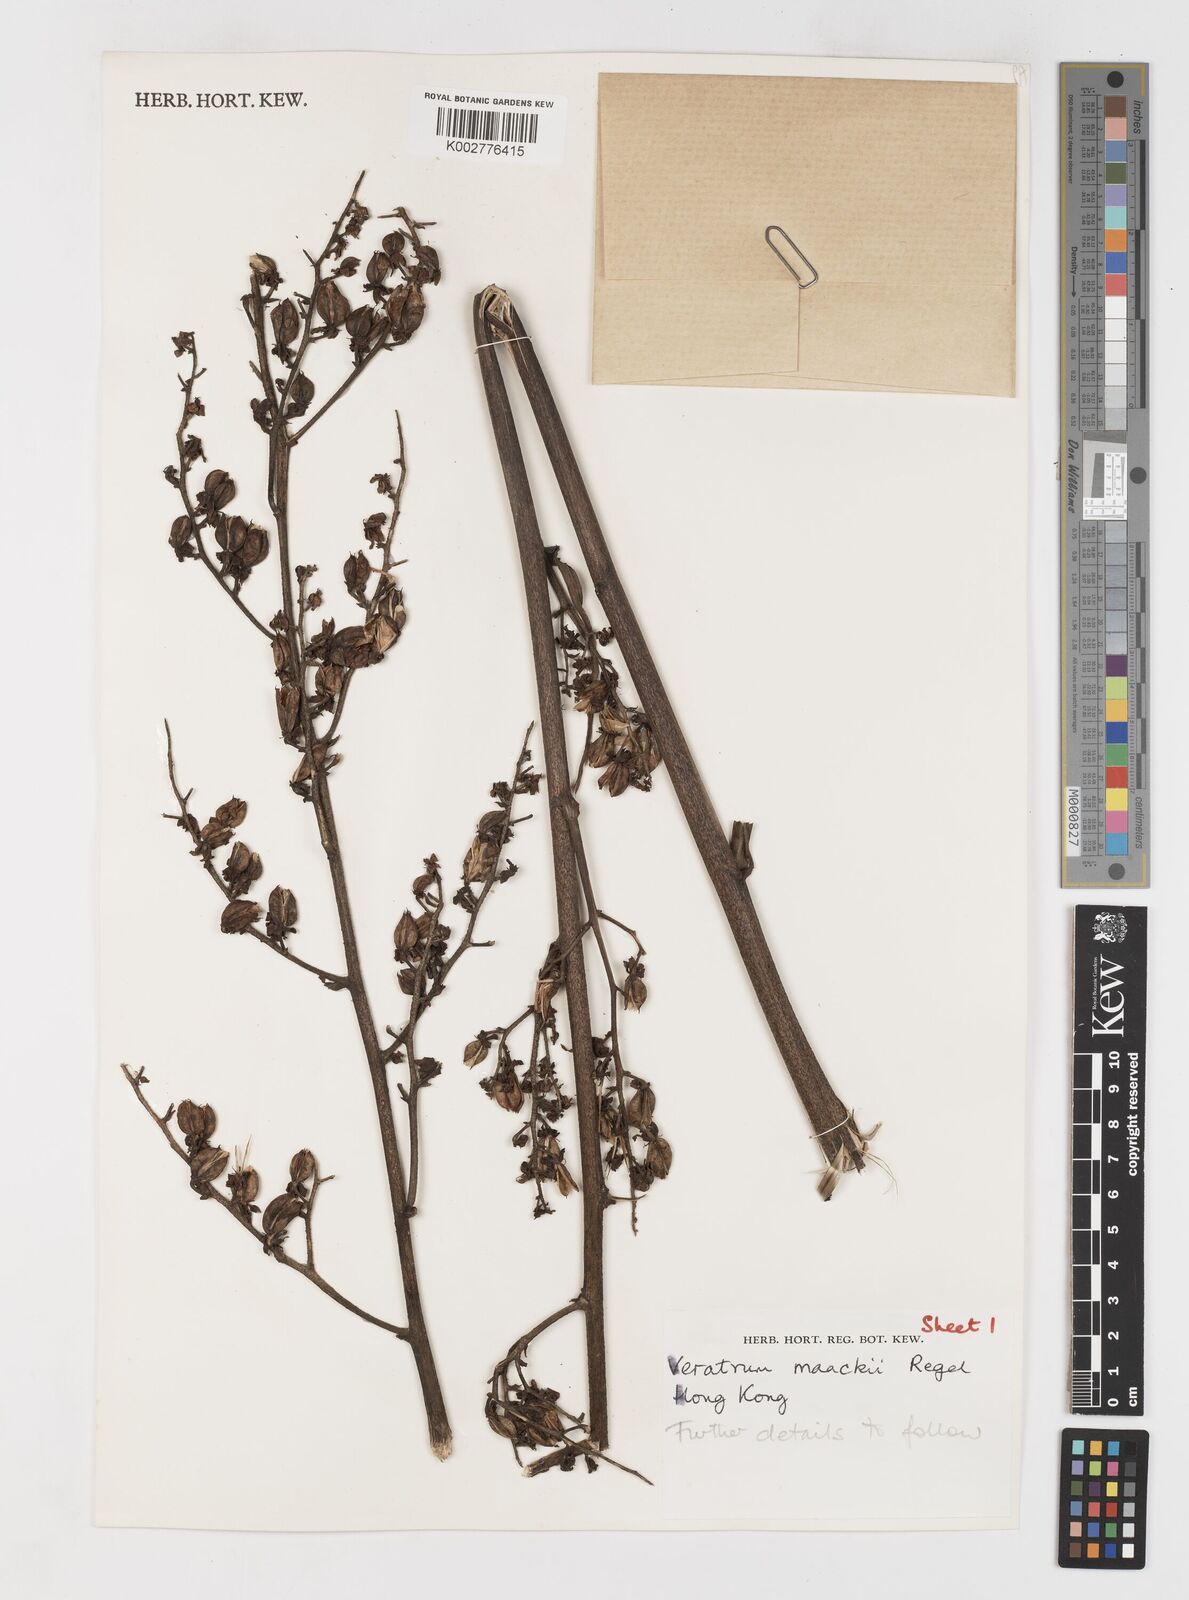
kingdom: Plantae
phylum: Tracheophyta
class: Liliopsida
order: Liliales
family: Melanthiaceae
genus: Veratrum
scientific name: Veratrum maackii
